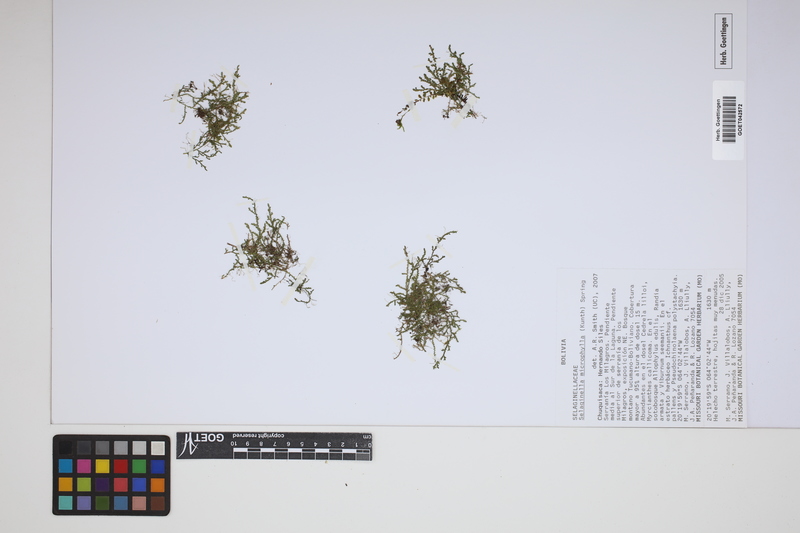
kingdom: Plantae
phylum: Tracheophyta
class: Lycopodiopsida
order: Selaginellales
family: Selaginellaceae
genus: Selaginella
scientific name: Selaginella microphylla
